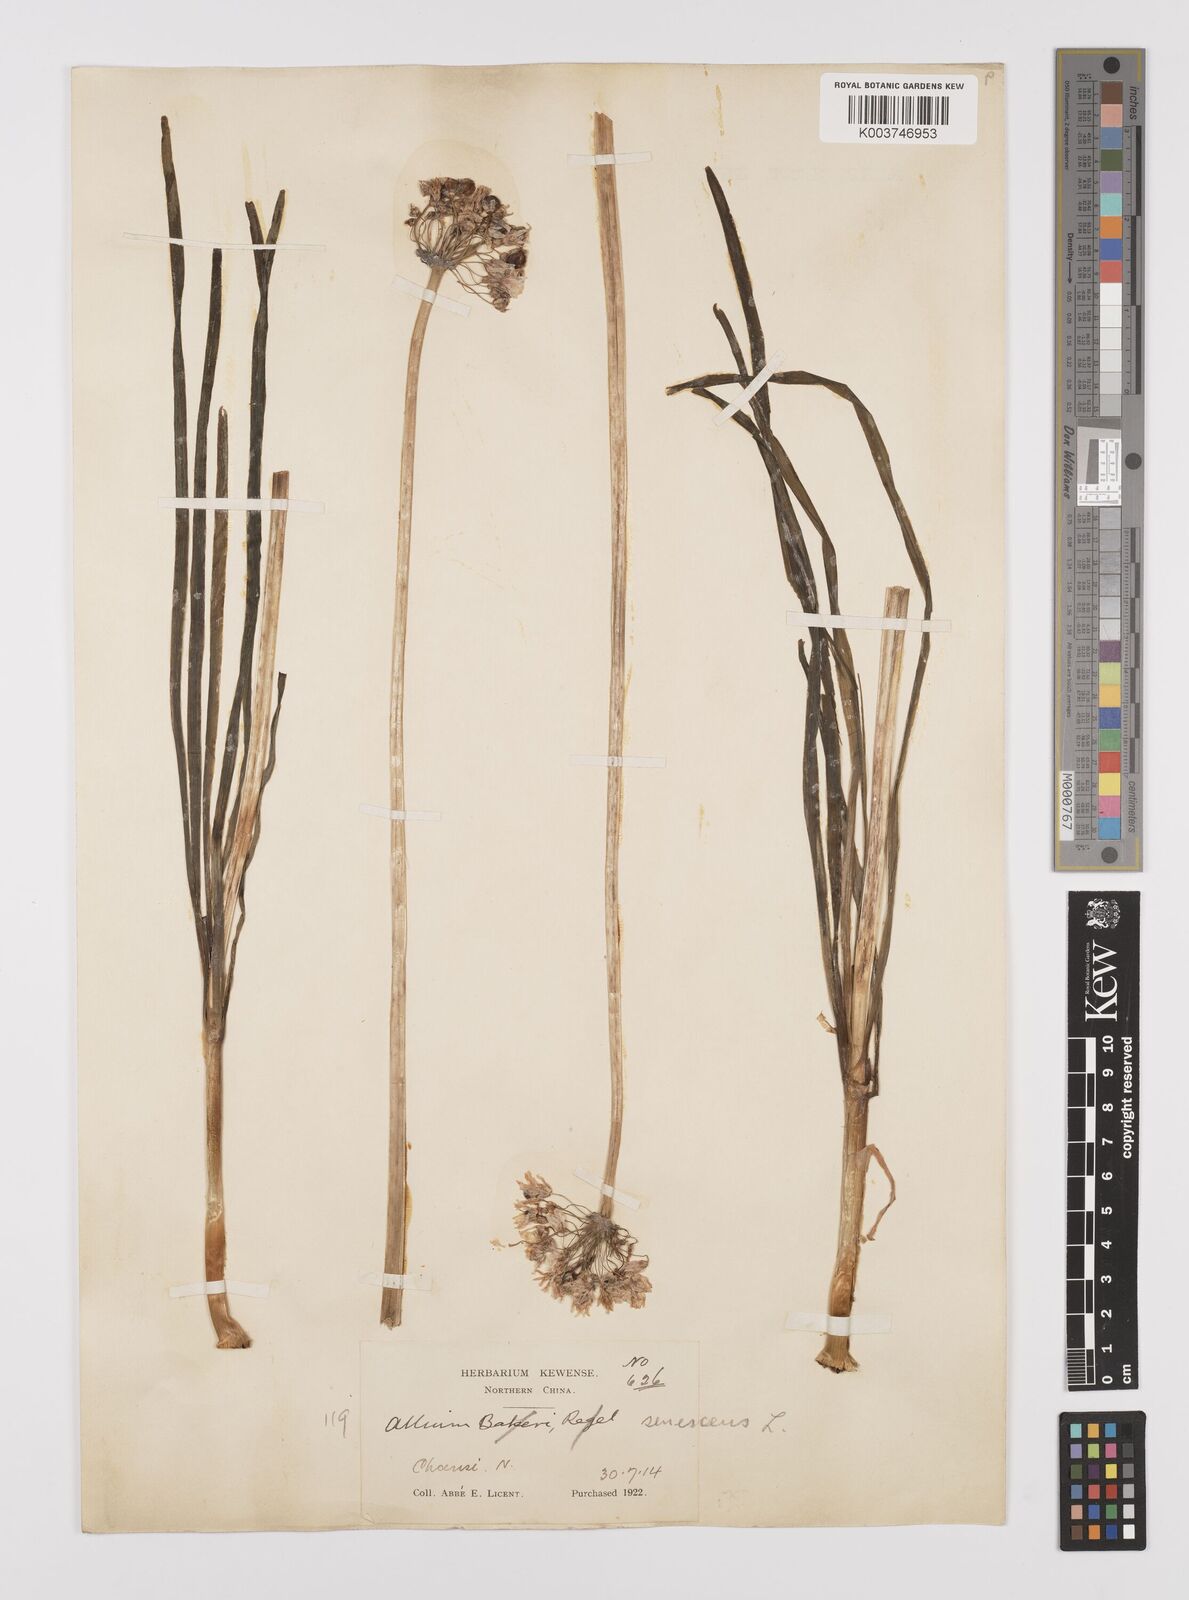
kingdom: Plantae
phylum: Tracheophyta
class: Liliopsida
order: Asparagales
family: Amaryllidaceae
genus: Allium
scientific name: Allium
